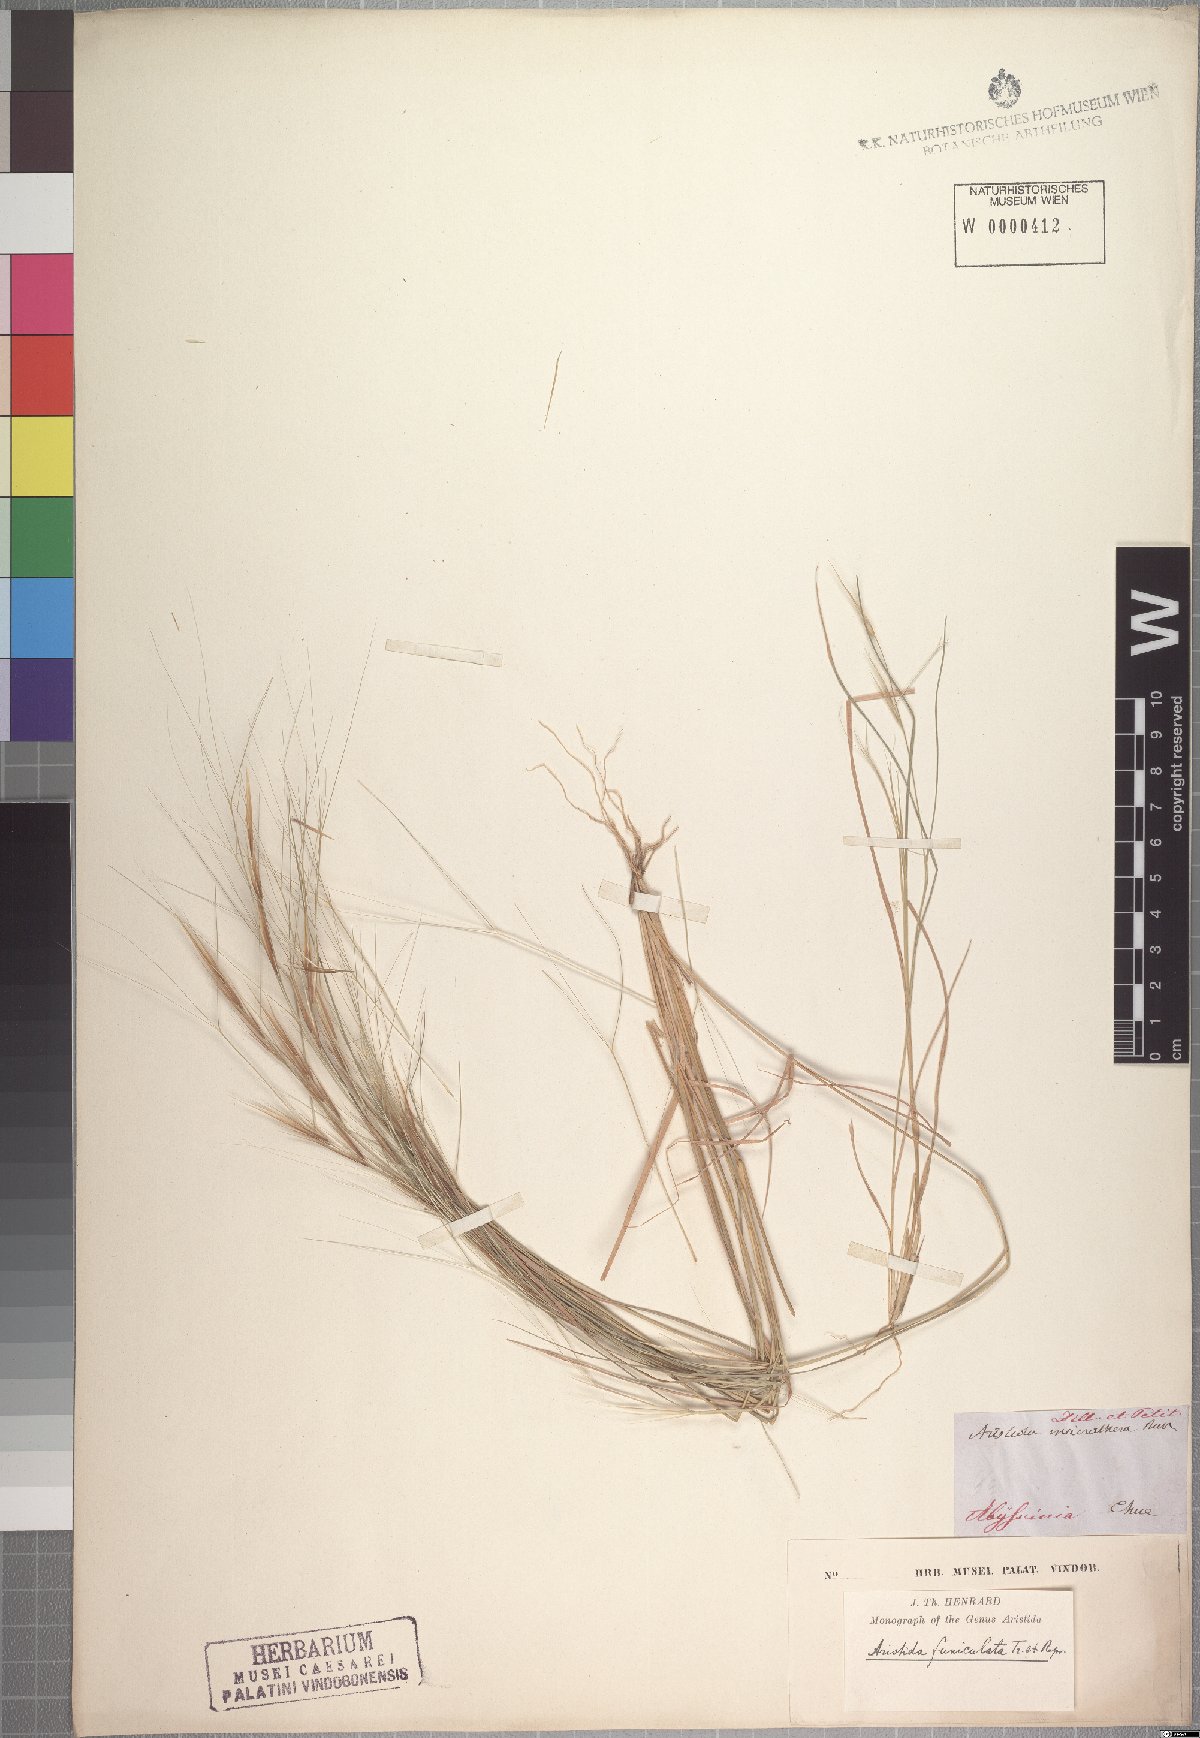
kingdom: Plantae
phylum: Tracheophyta
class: Liliopsida
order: Poales
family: Poaceae
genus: Aristida
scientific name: Aristida funiculata
